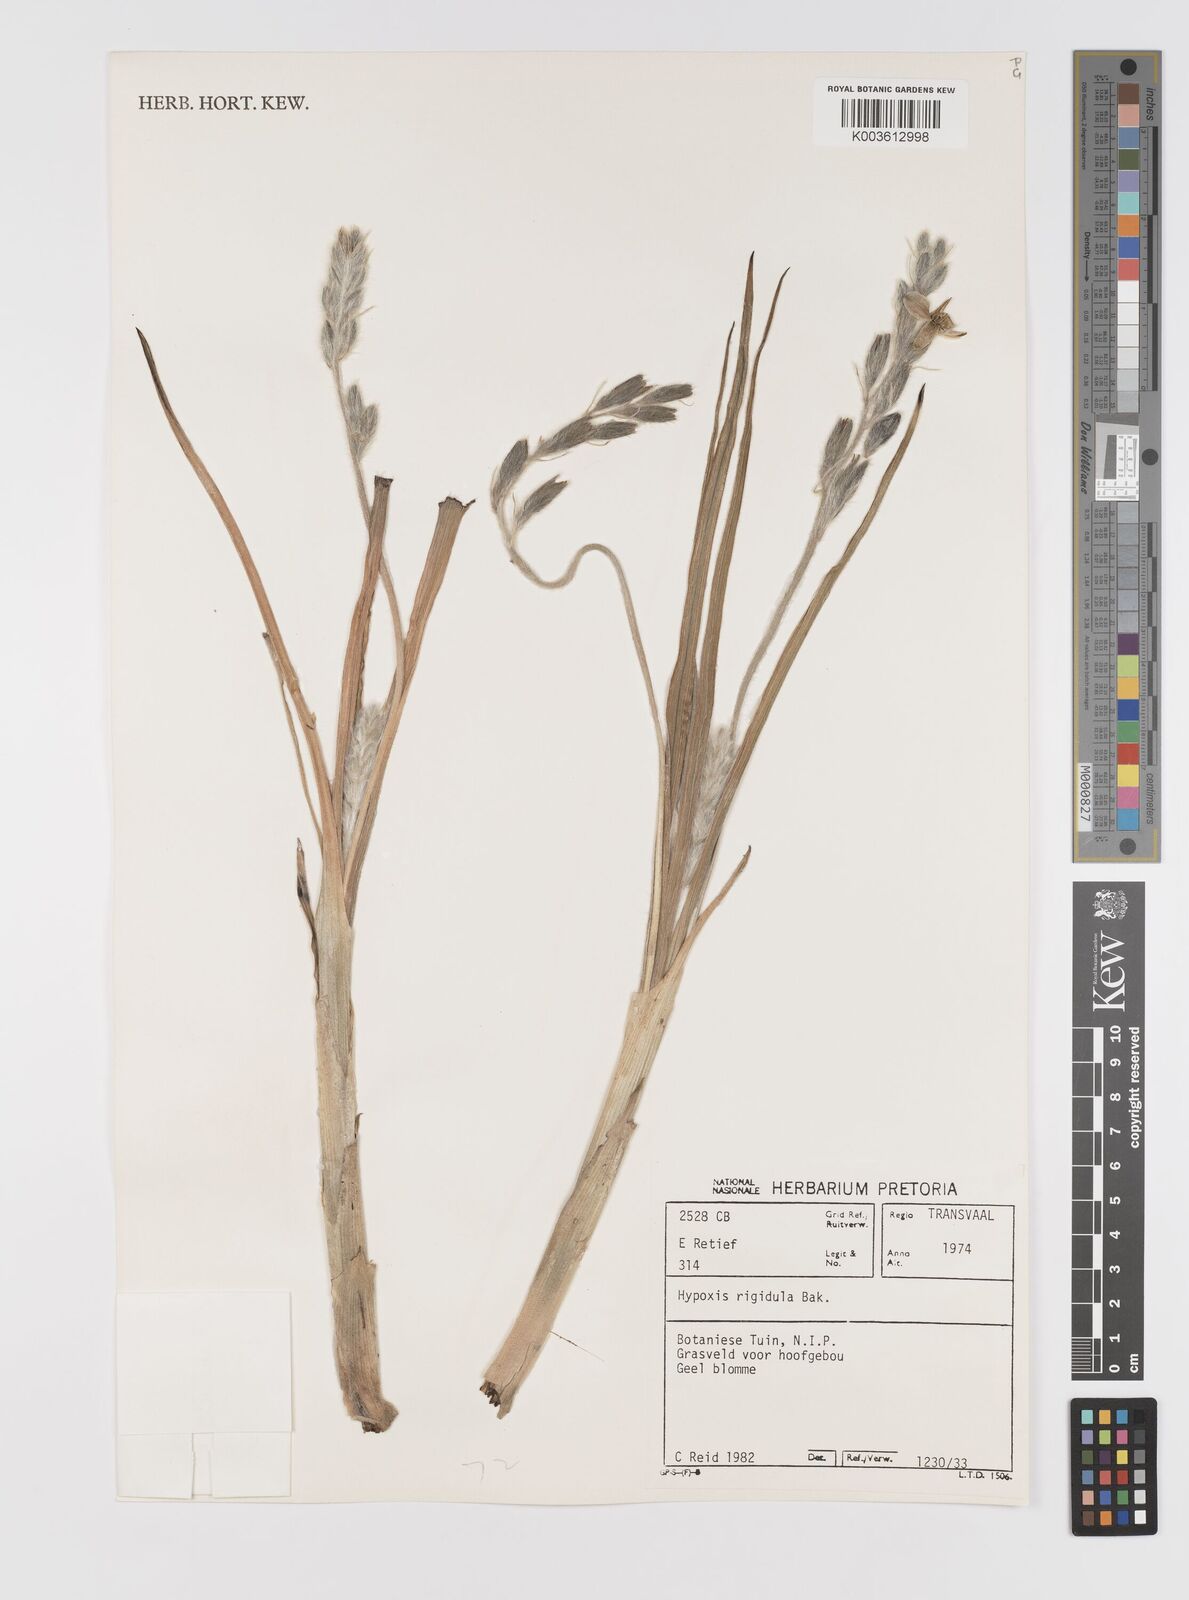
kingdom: Plantae
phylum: Tracheophyta
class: Liliopsida
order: Asparagales
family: Hypoxidaceae
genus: Hypoxis
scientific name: Hypoxis rigidula
